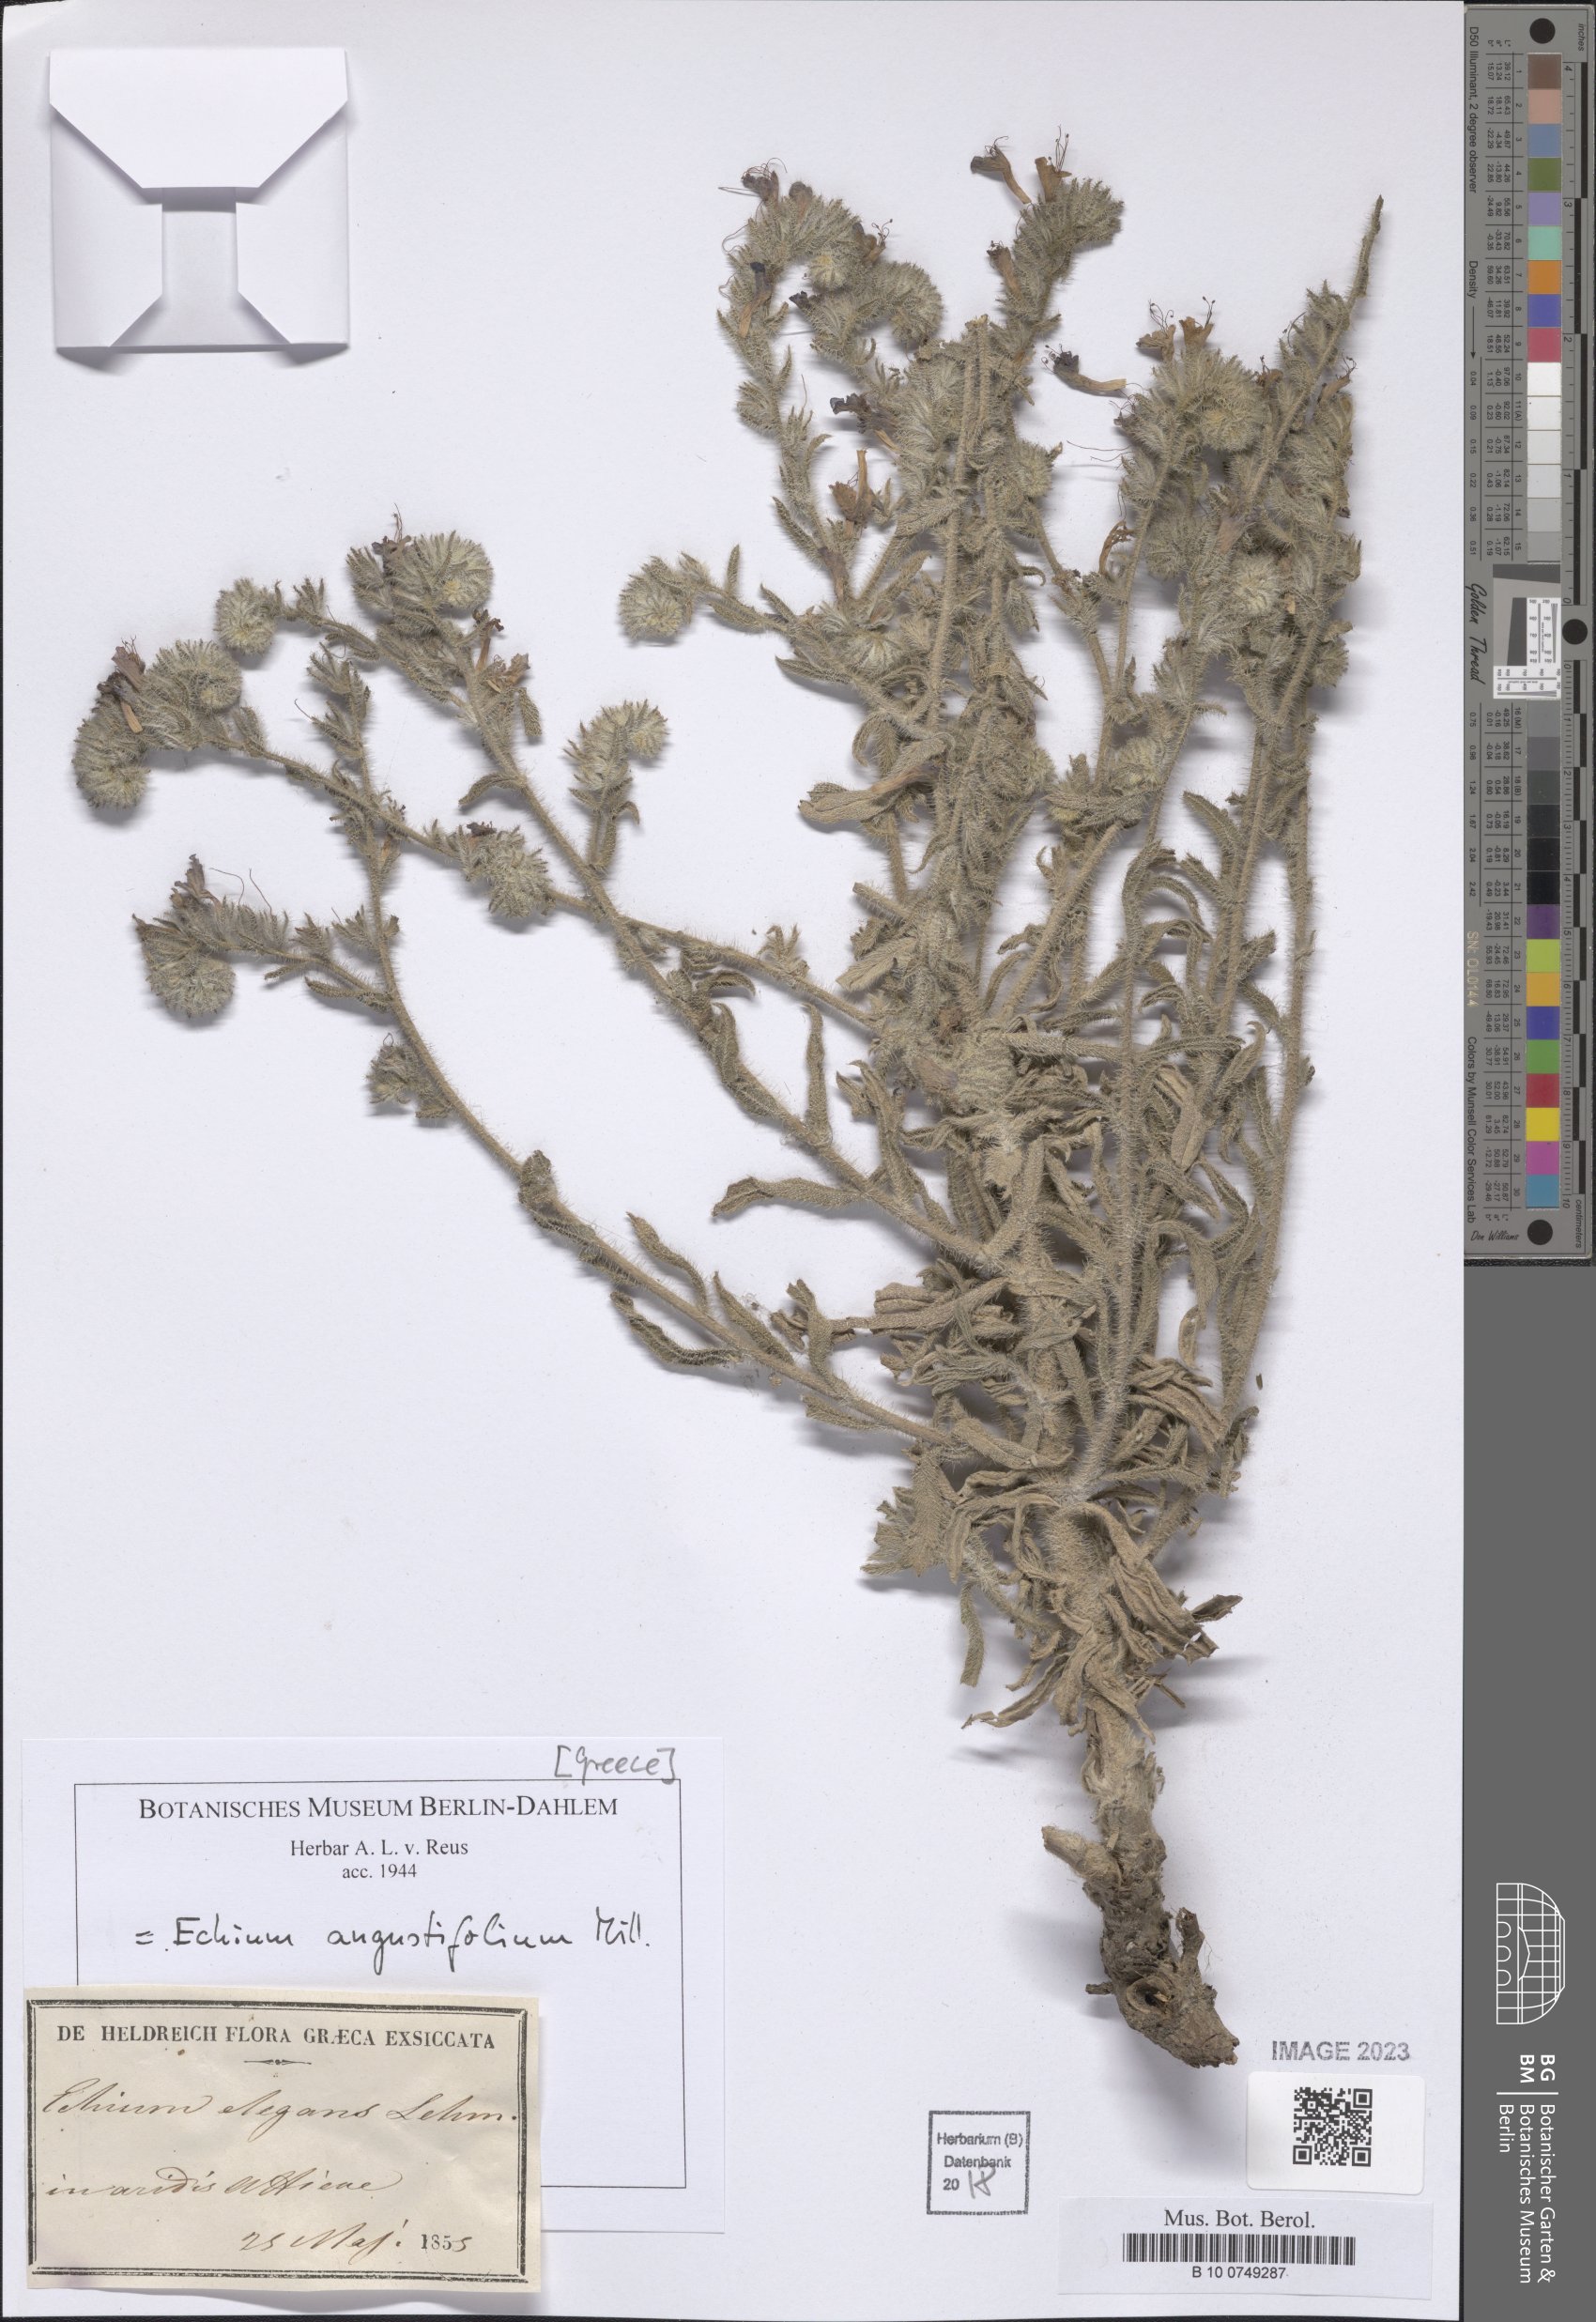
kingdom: Plantae
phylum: Tracheophyta
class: Magnoliopsida
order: Boraginales
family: Boraginaceae
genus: Lobostemon
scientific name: Lobostemon glaucophyllus
